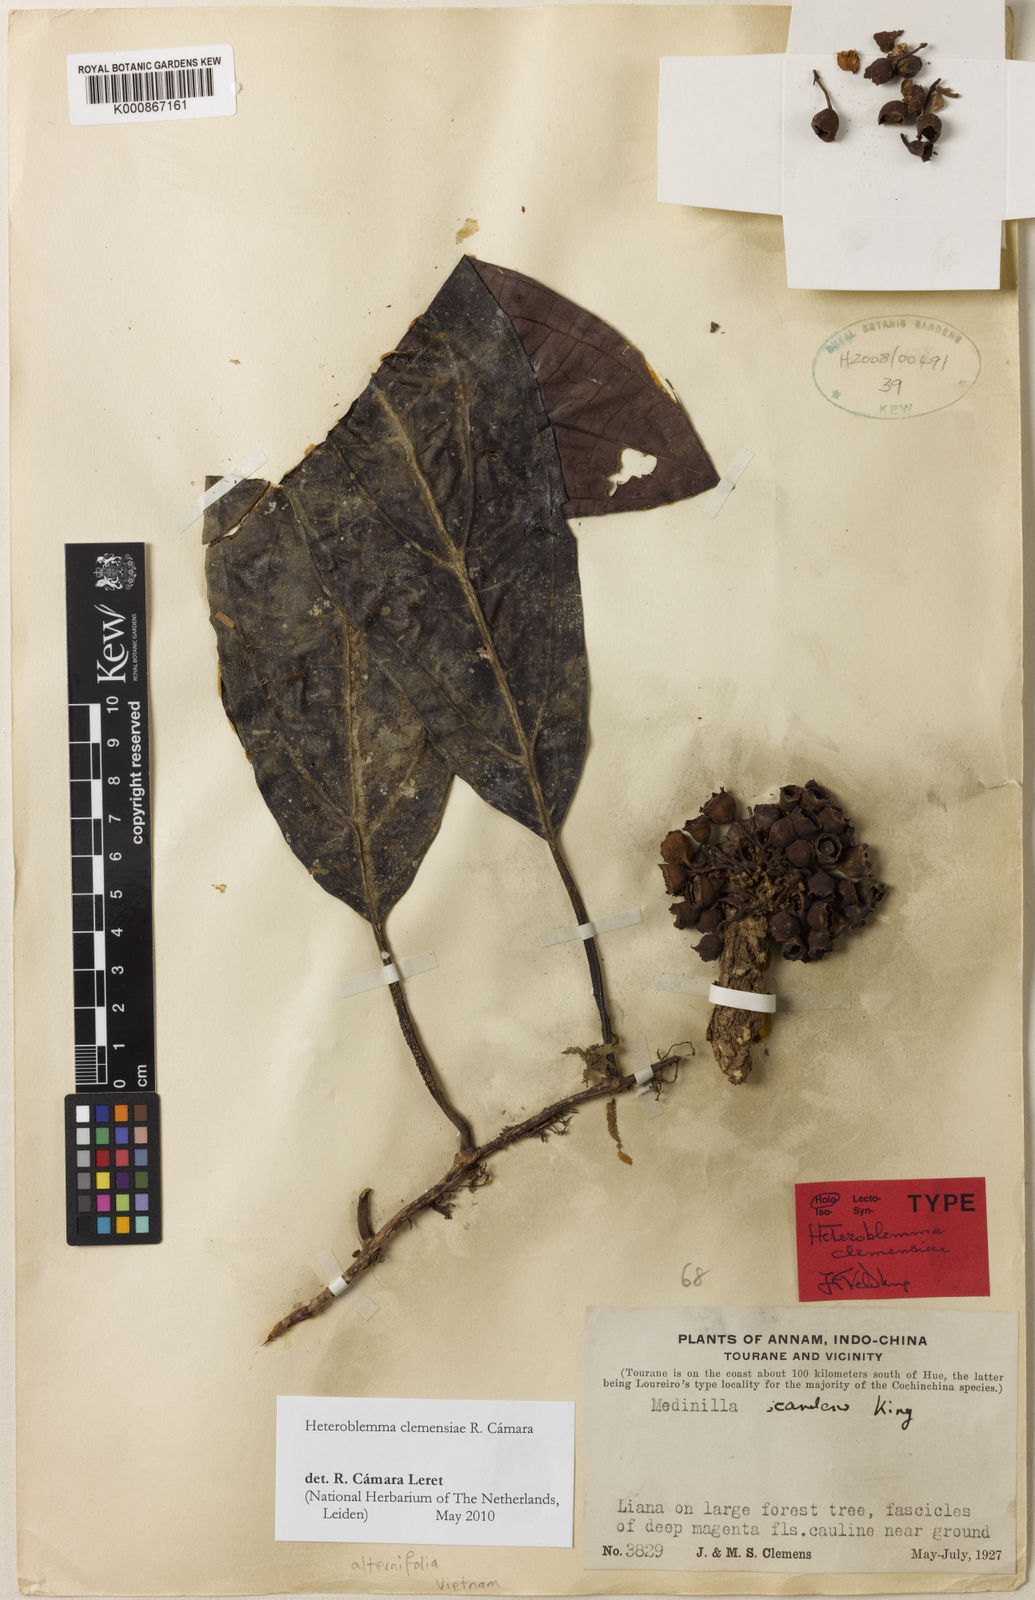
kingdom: Plantae
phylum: Tracheophyta
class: Magnoliopsida
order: Myrtales
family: Melastomataceae
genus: Heteroblemma
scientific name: Heteroblemma alternifolium
